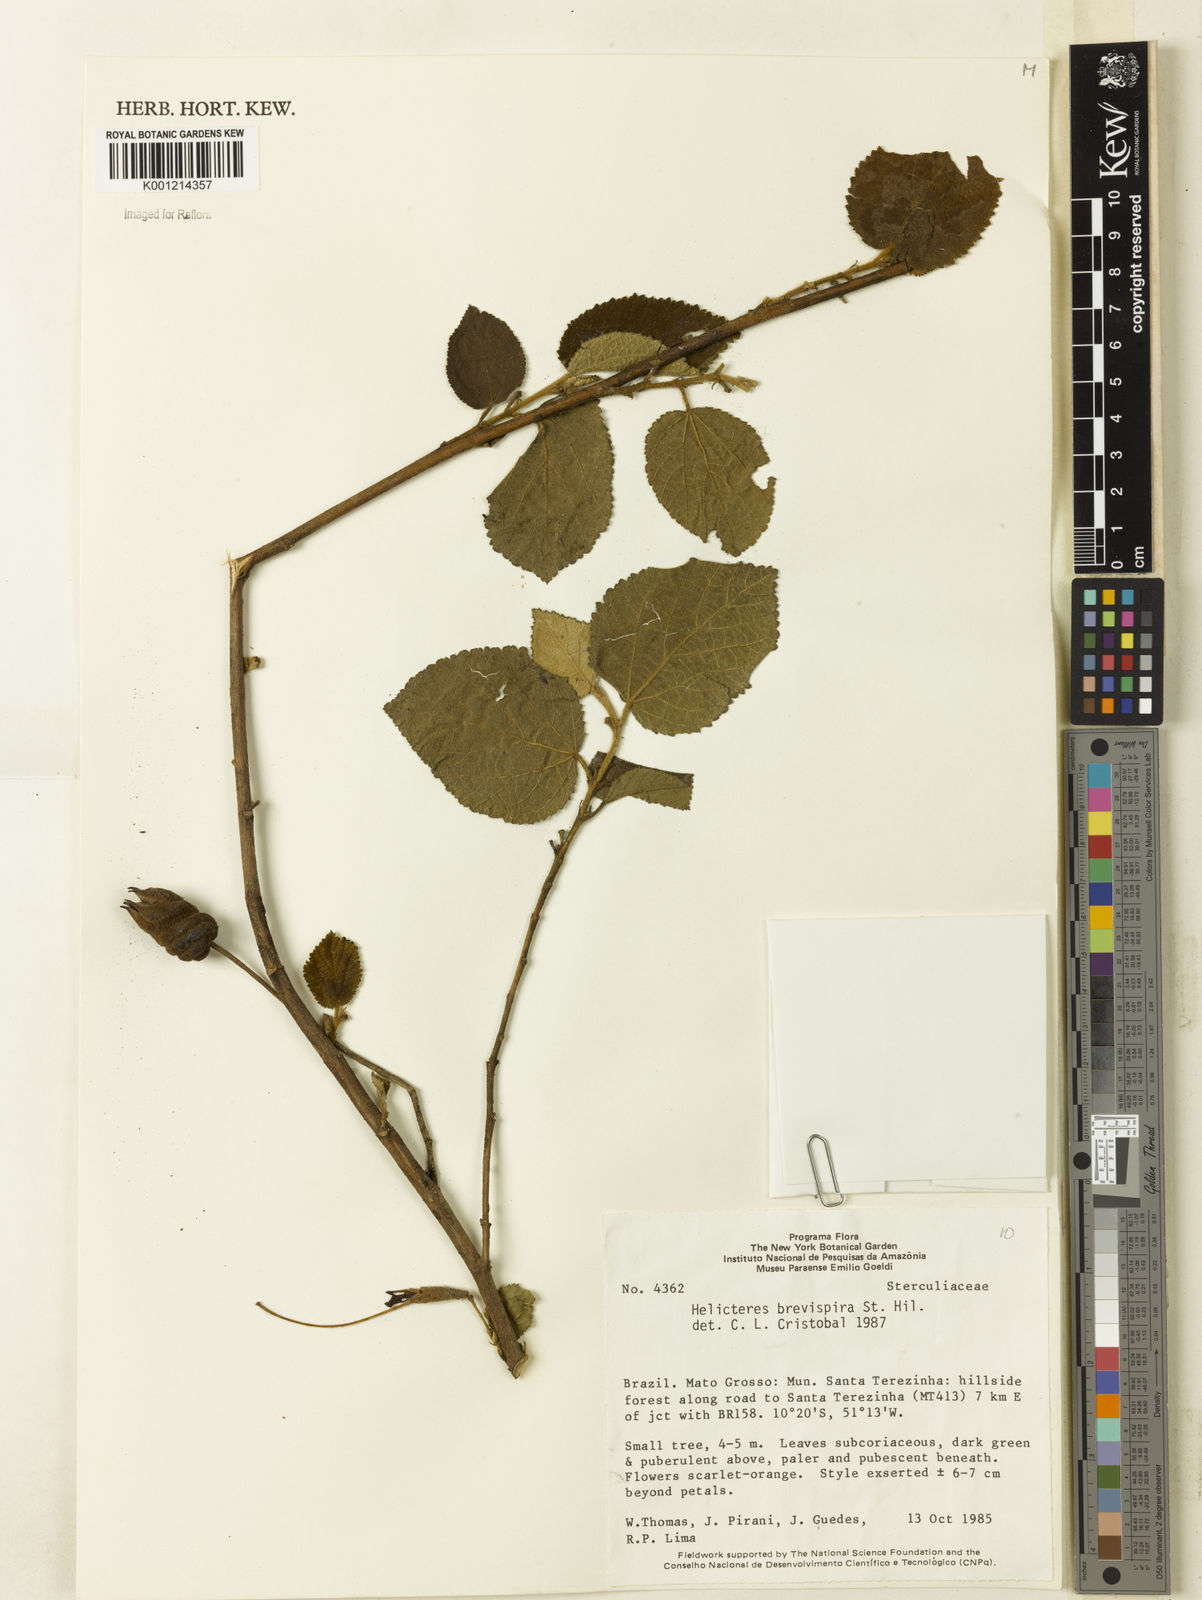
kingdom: Plantae
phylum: Tracheophyta
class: Magnoliopsida
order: Malvales
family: Malvaceae
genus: Helicteres
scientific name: Helicteres
